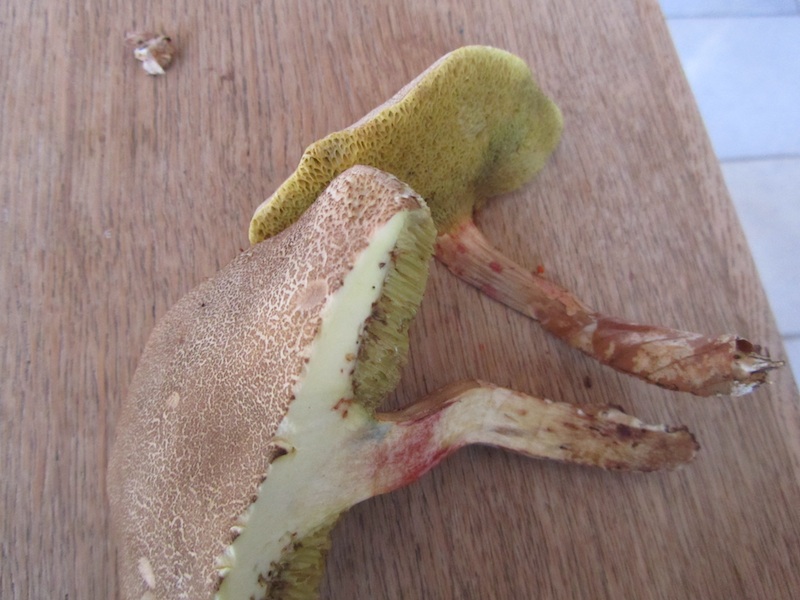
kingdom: Fungi
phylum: Basidiomycota
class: Agaricomycetes
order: Boletales
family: Boletaceae
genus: Xerocomellus
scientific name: Xerocomellus porosporus
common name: hvidsprukken rørhat
